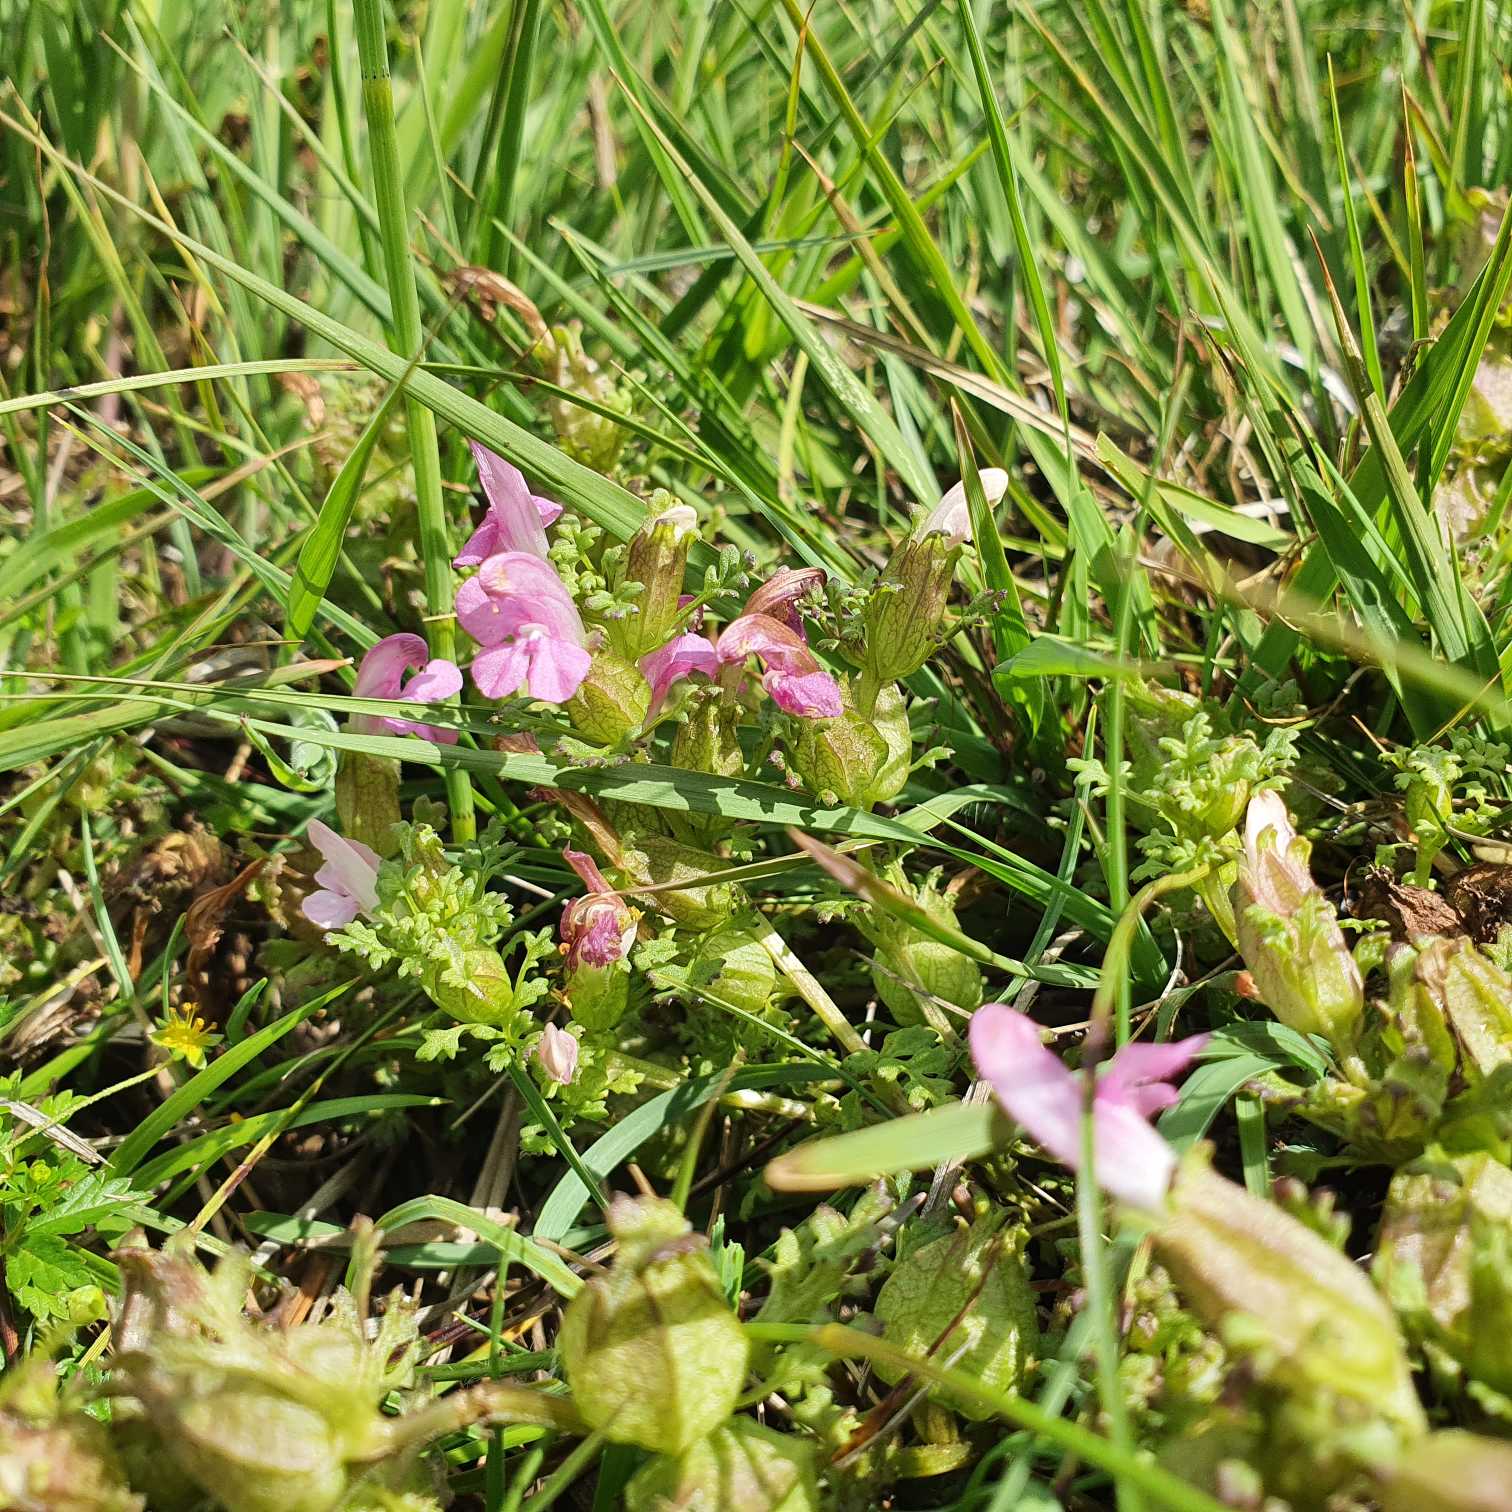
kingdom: Plantae
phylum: Tracheophyta
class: Magnoliopsida
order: Lamiales
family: Orobanchaceae
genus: Pedicularis
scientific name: Pedicularis sylvatica
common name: Mose-troldurt
